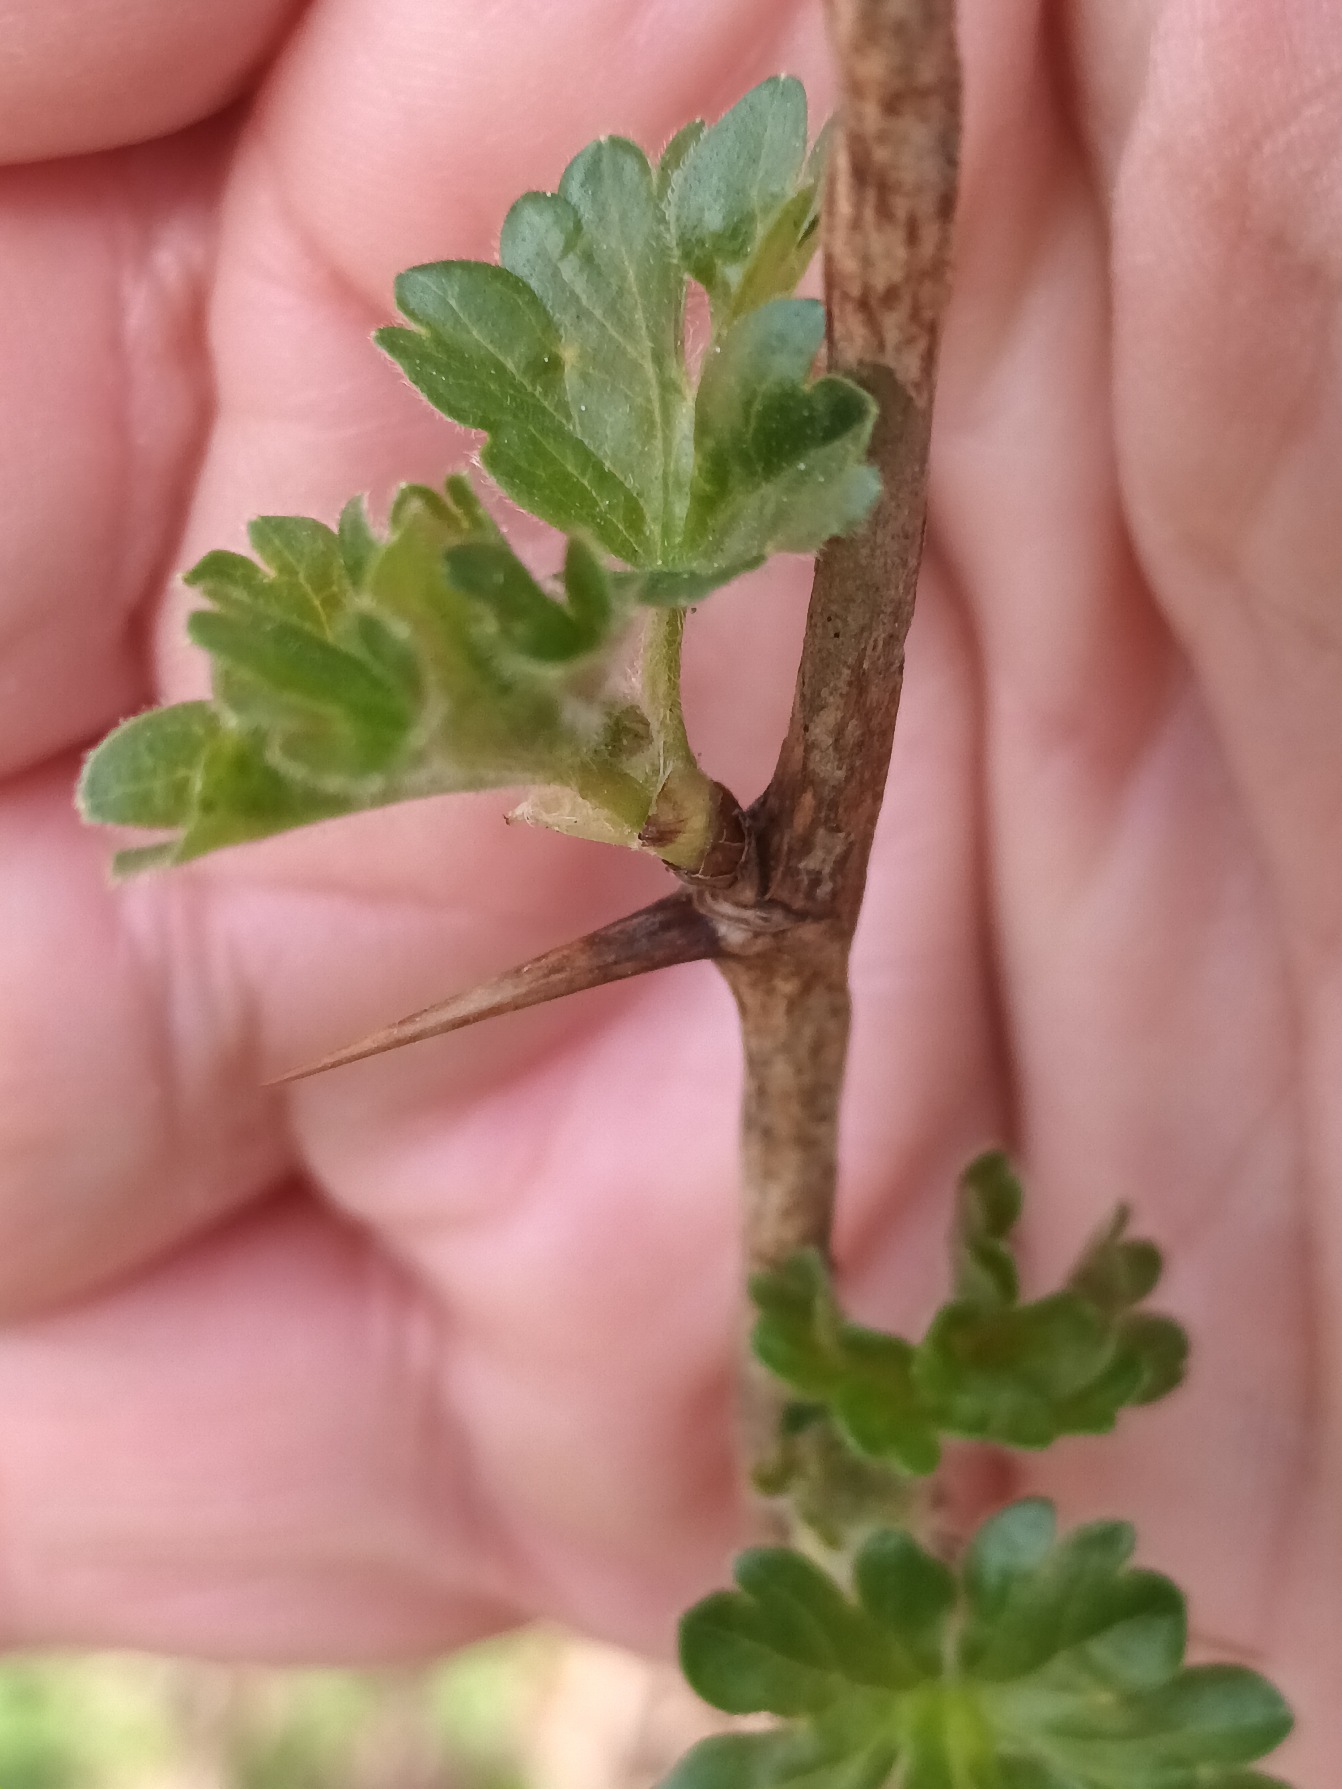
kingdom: Plantae
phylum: Tracheophyta
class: Magnoliopsida
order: Saxifragales
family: Grossulariaceae
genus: Ribes
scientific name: Ribes uva-crispa
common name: Stikkelsbær
